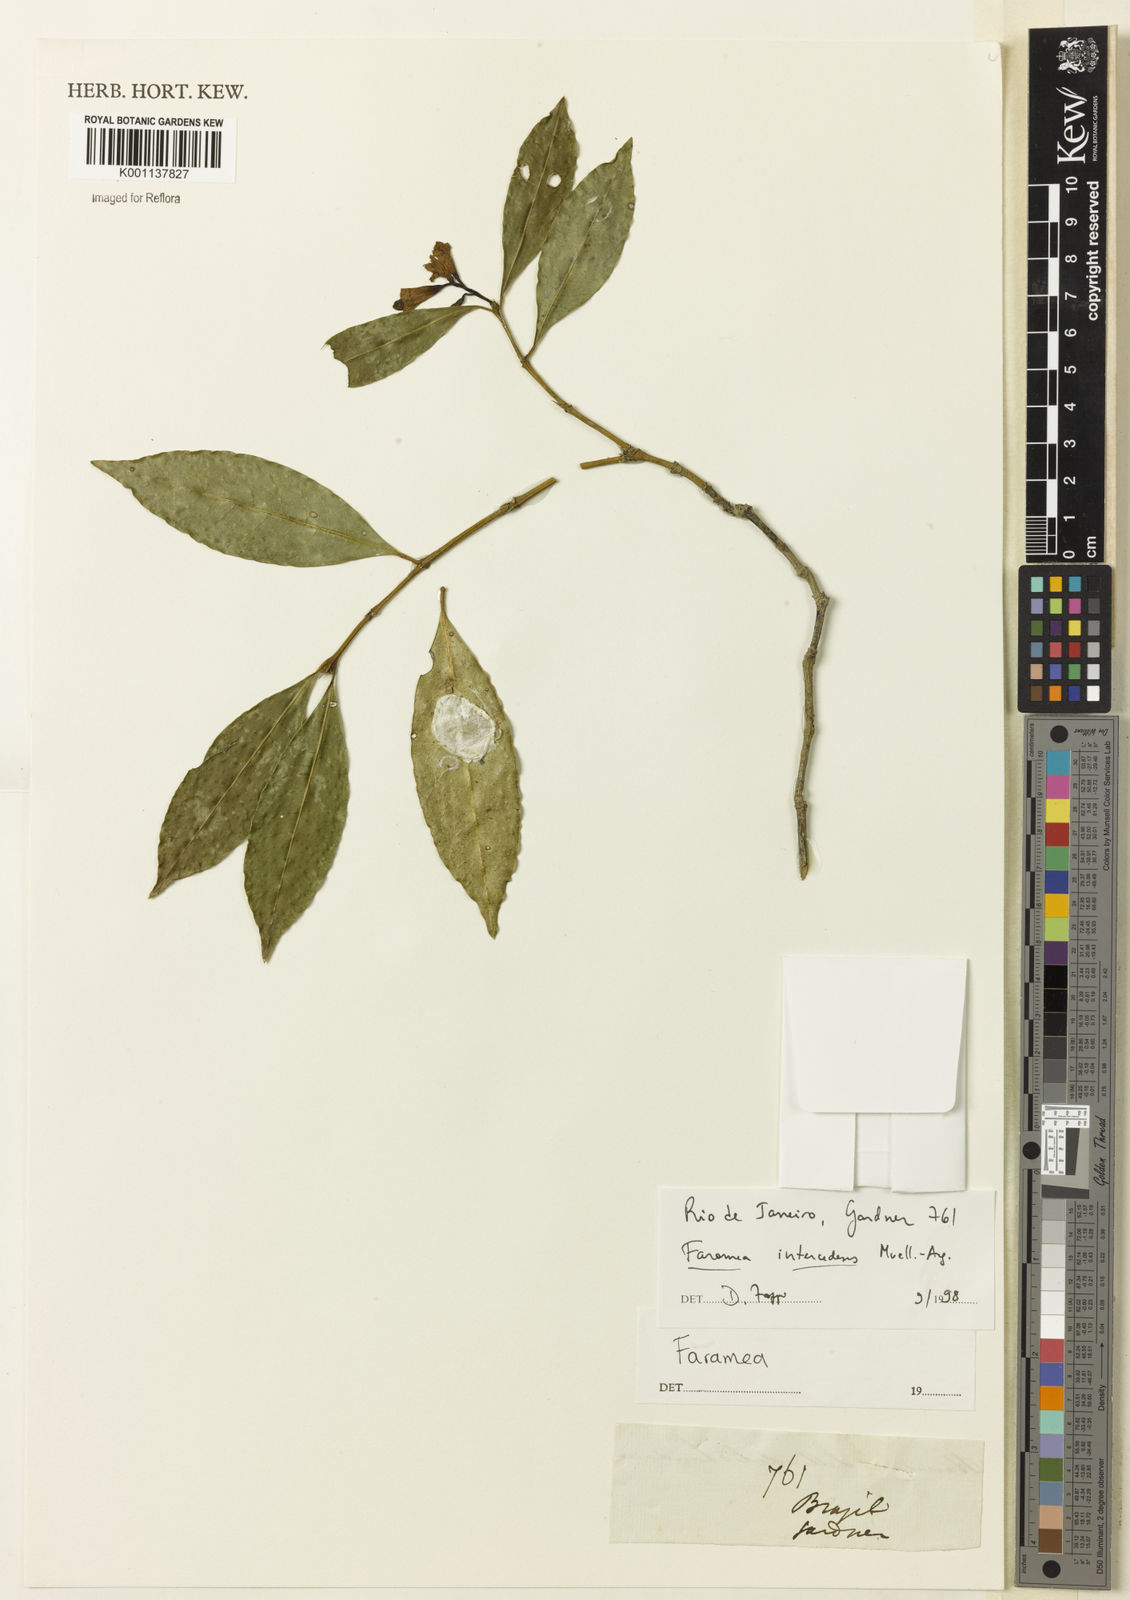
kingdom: Plantae
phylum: Tracheophyta
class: Magnoliopsida
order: Gentianales
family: Rubiaceae
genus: Faramea
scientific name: Faramea
